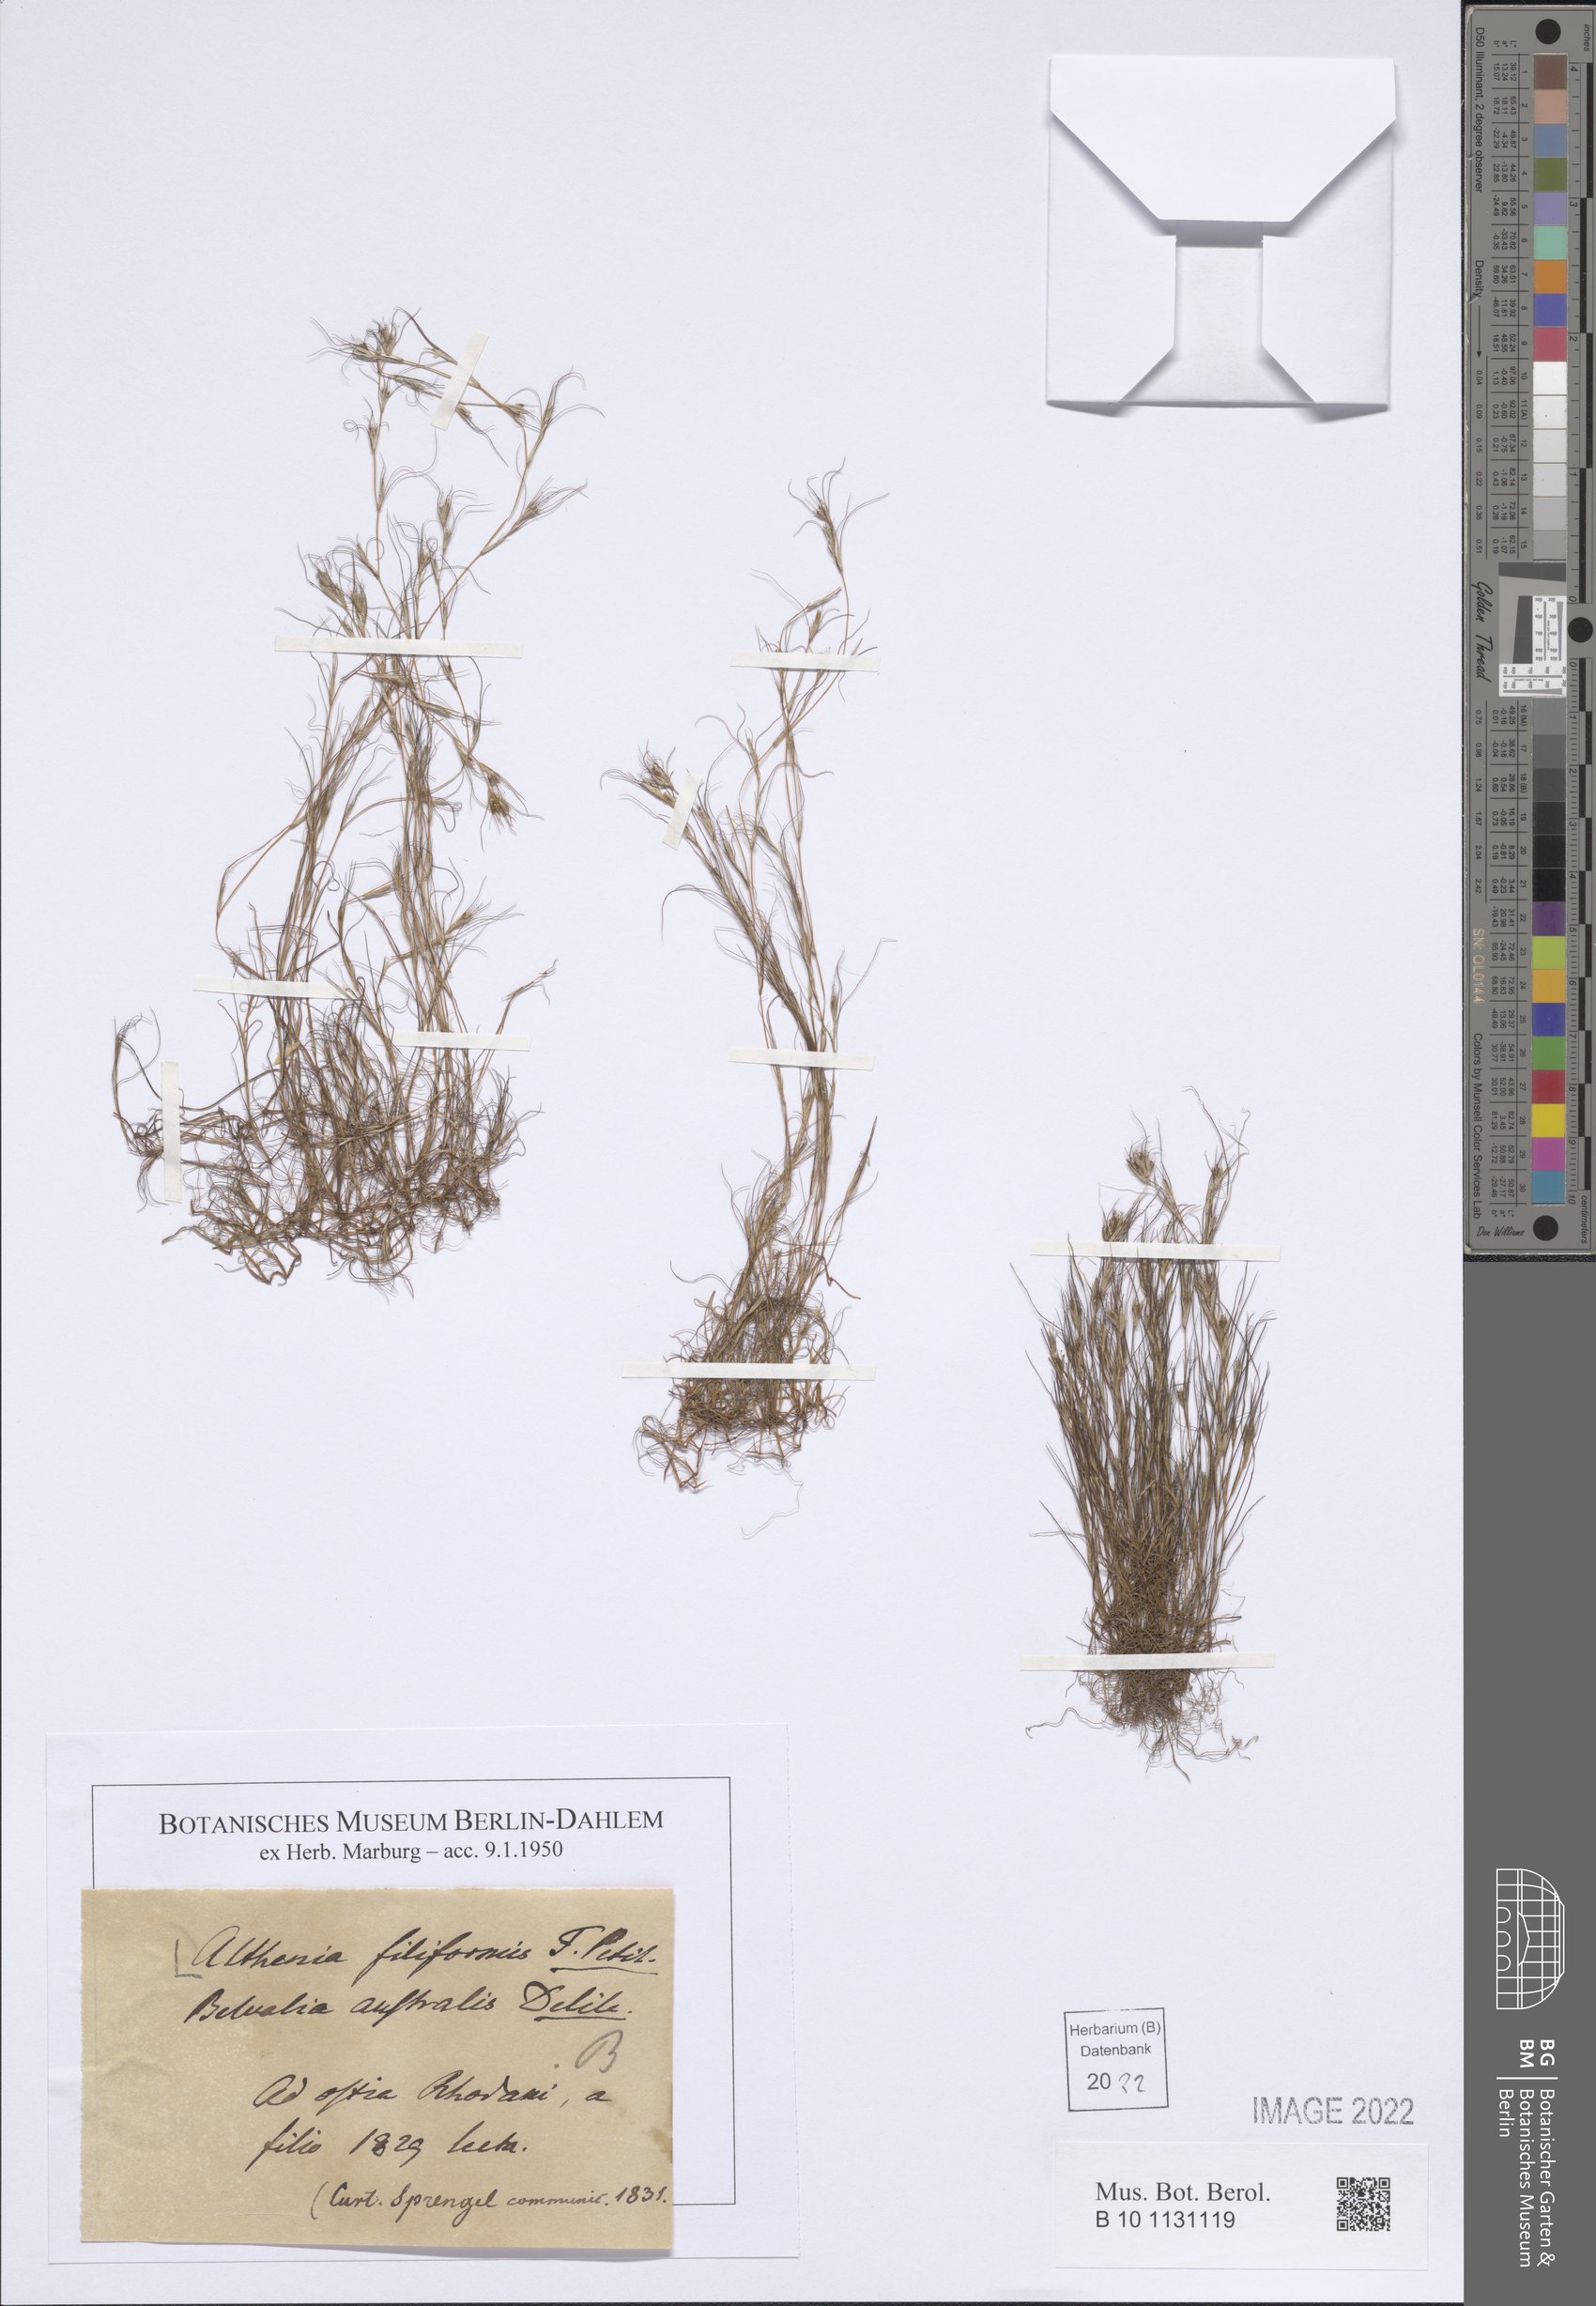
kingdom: Plantae
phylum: Tracheophyta
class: Liliopsida
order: Alismatales
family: Potamogetonaceae
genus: Althenia
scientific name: Althenia filiformis
